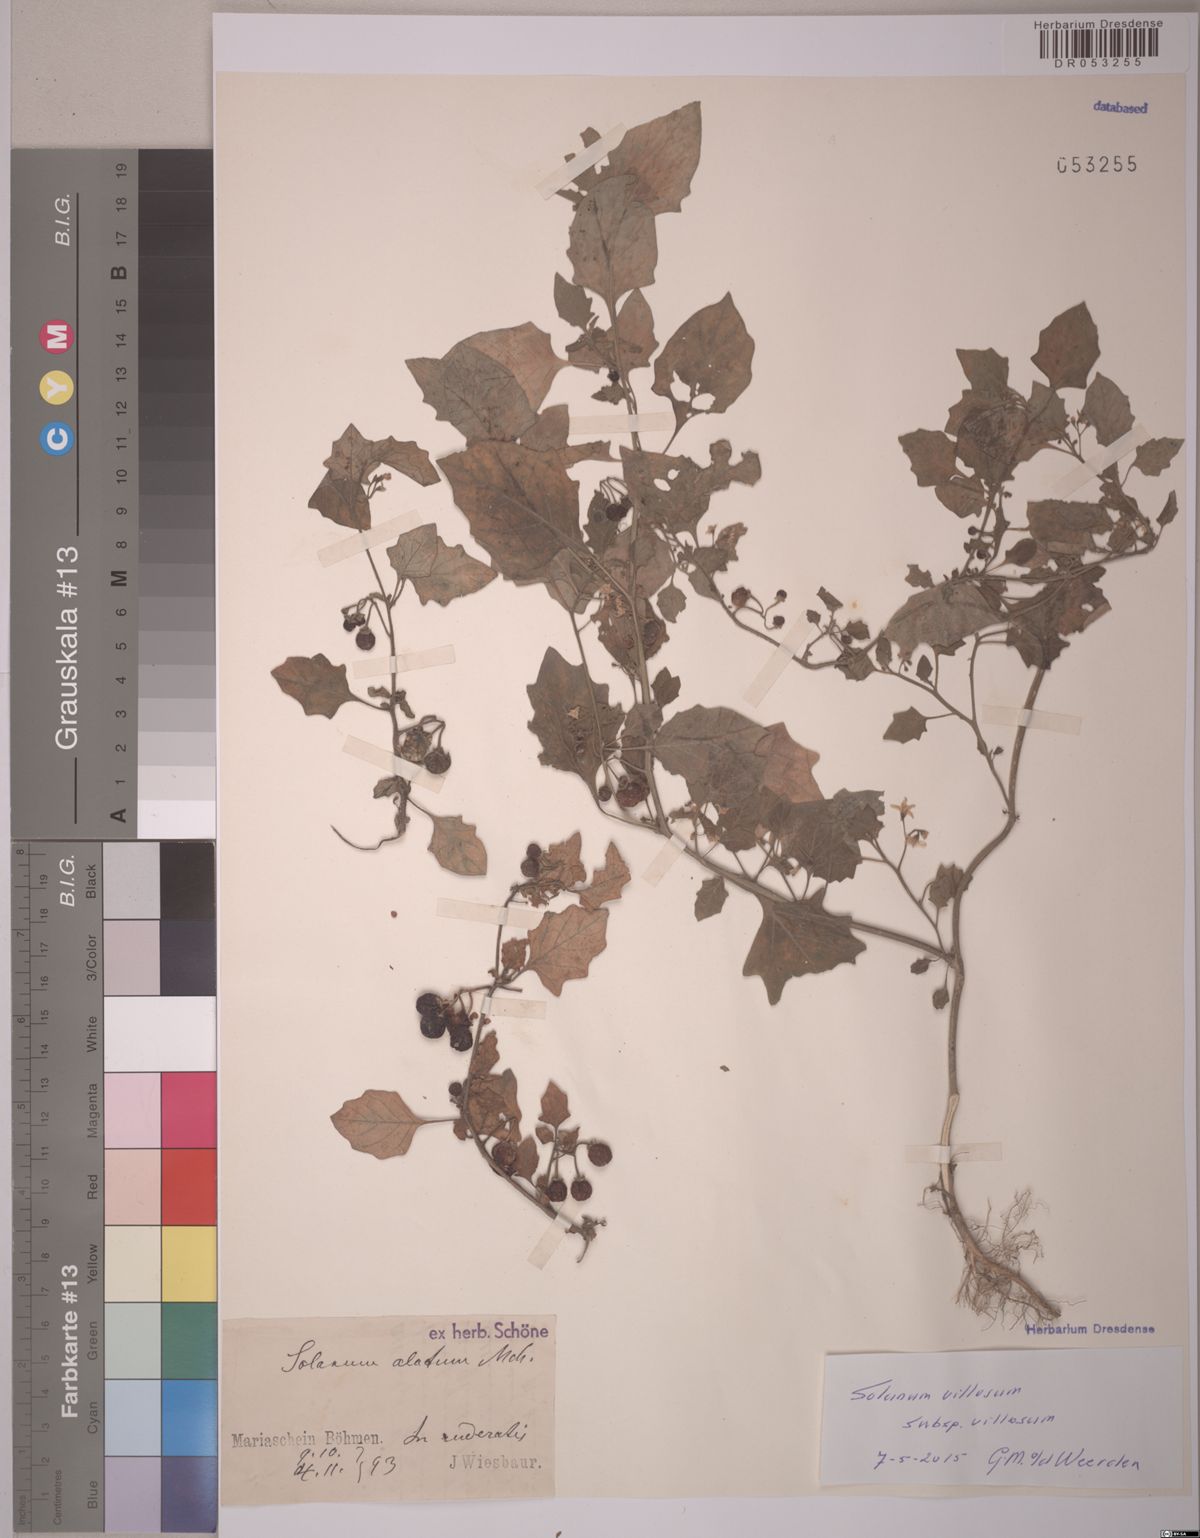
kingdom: Plantae
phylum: Tracheophyta
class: Magnoliopsida
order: Solanales
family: Solanaceae
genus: Solanum
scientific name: Solanum villosum
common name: Red nightshade
